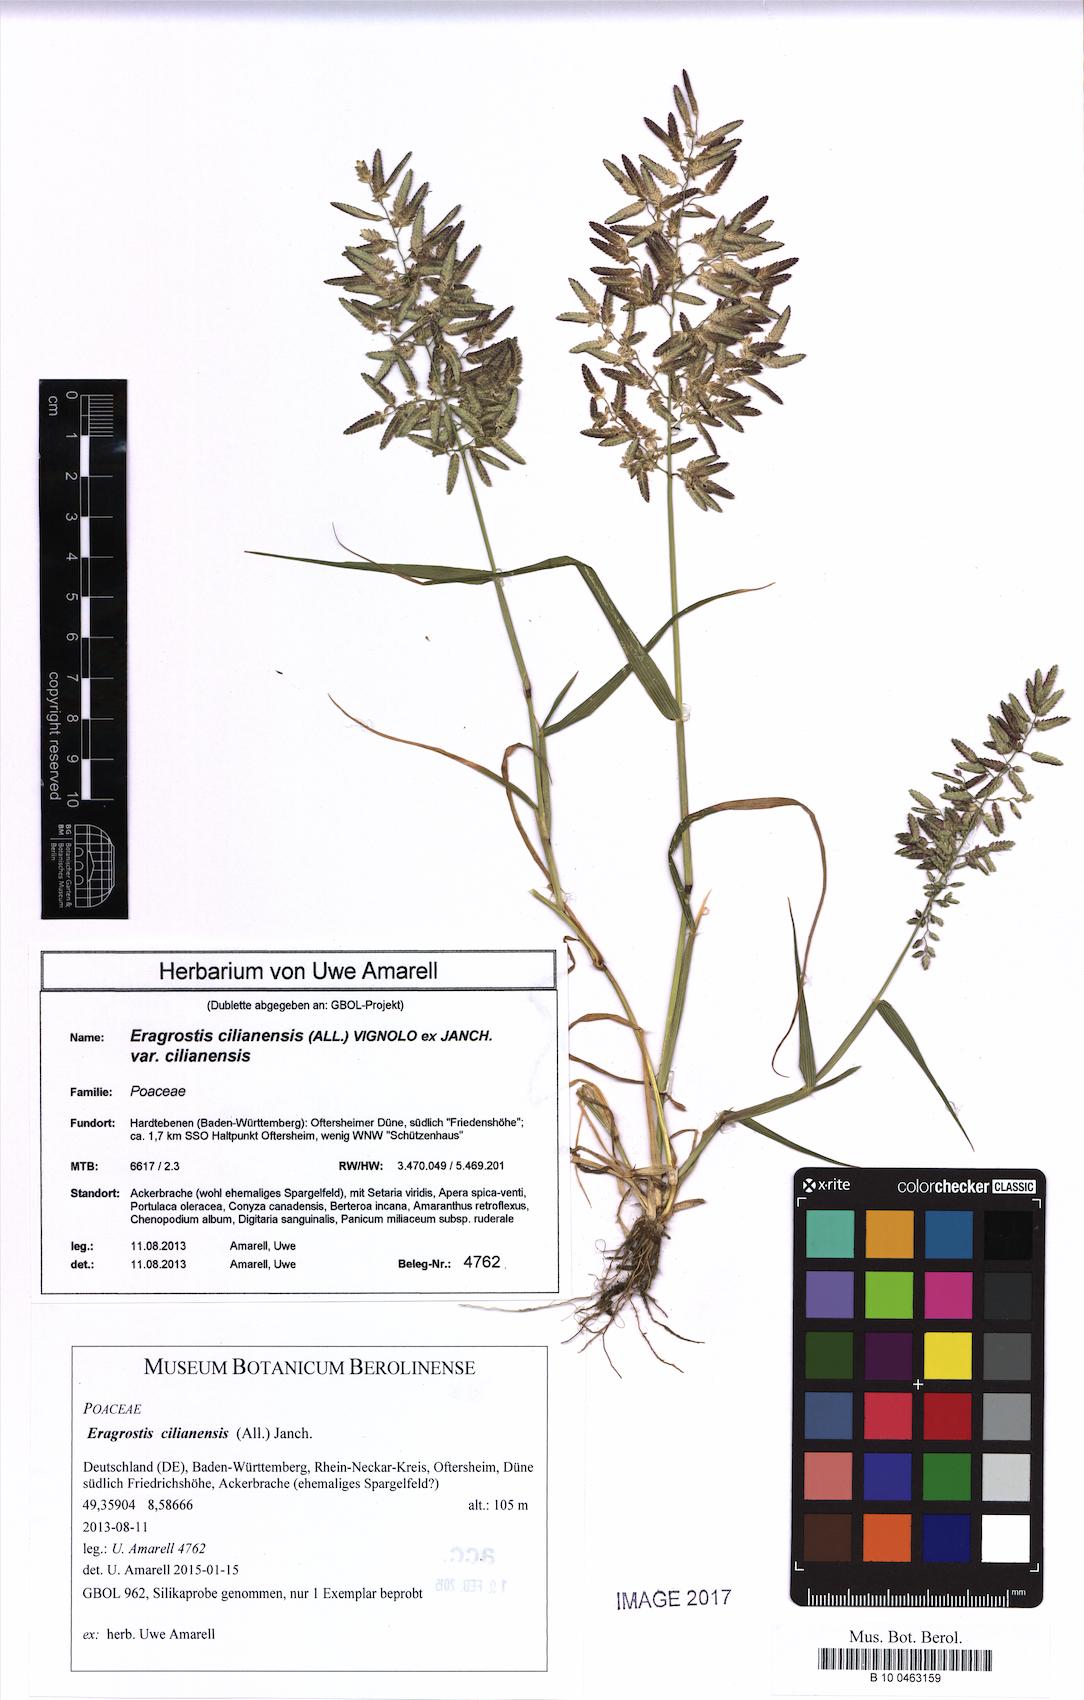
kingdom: Plantae
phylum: Tracheophyta
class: Liliopsida
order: Poales
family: Poaceae
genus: Eragrostis
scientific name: Eragrostis cilianensis
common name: Stinkgrass
